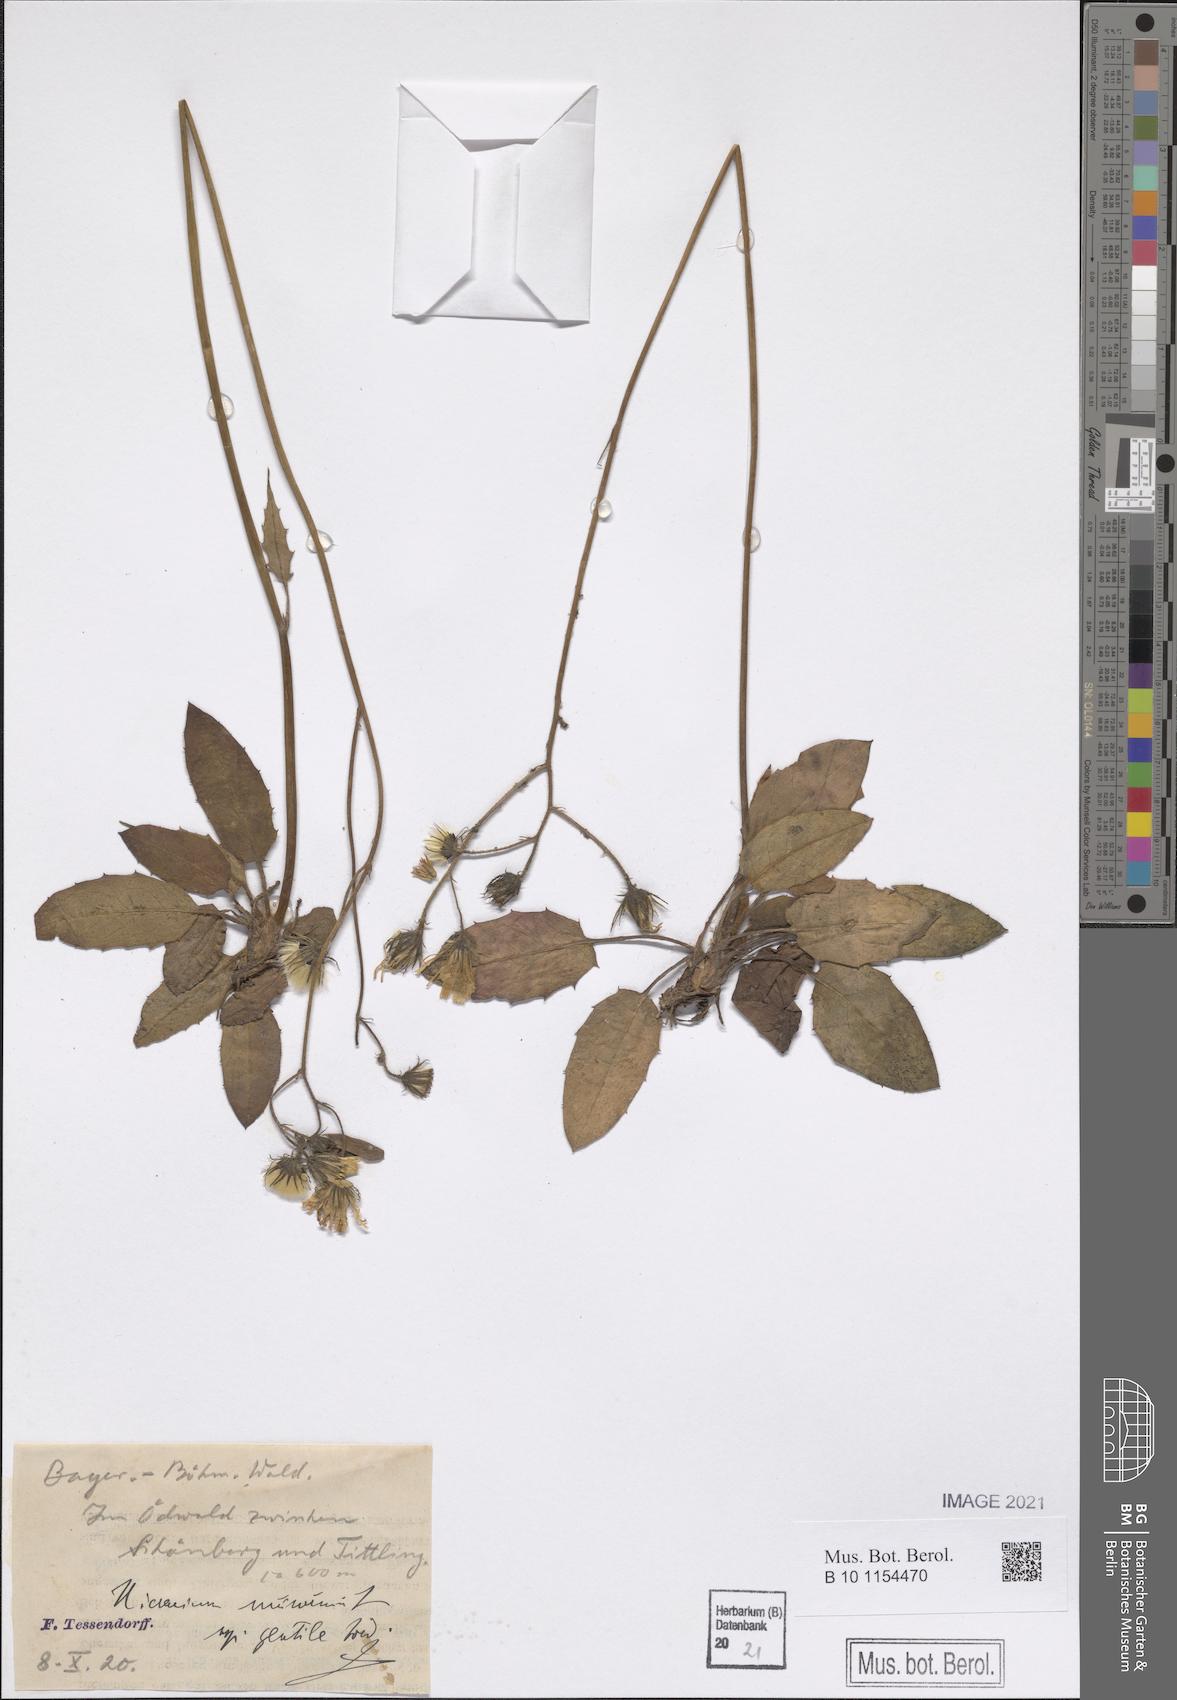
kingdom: Plantae
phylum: Tracheophyta
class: Magnoliopsida
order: Asterales
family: Asteraceae
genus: Hieracium
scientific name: Hieracium murorum
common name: Wall hawkweed
